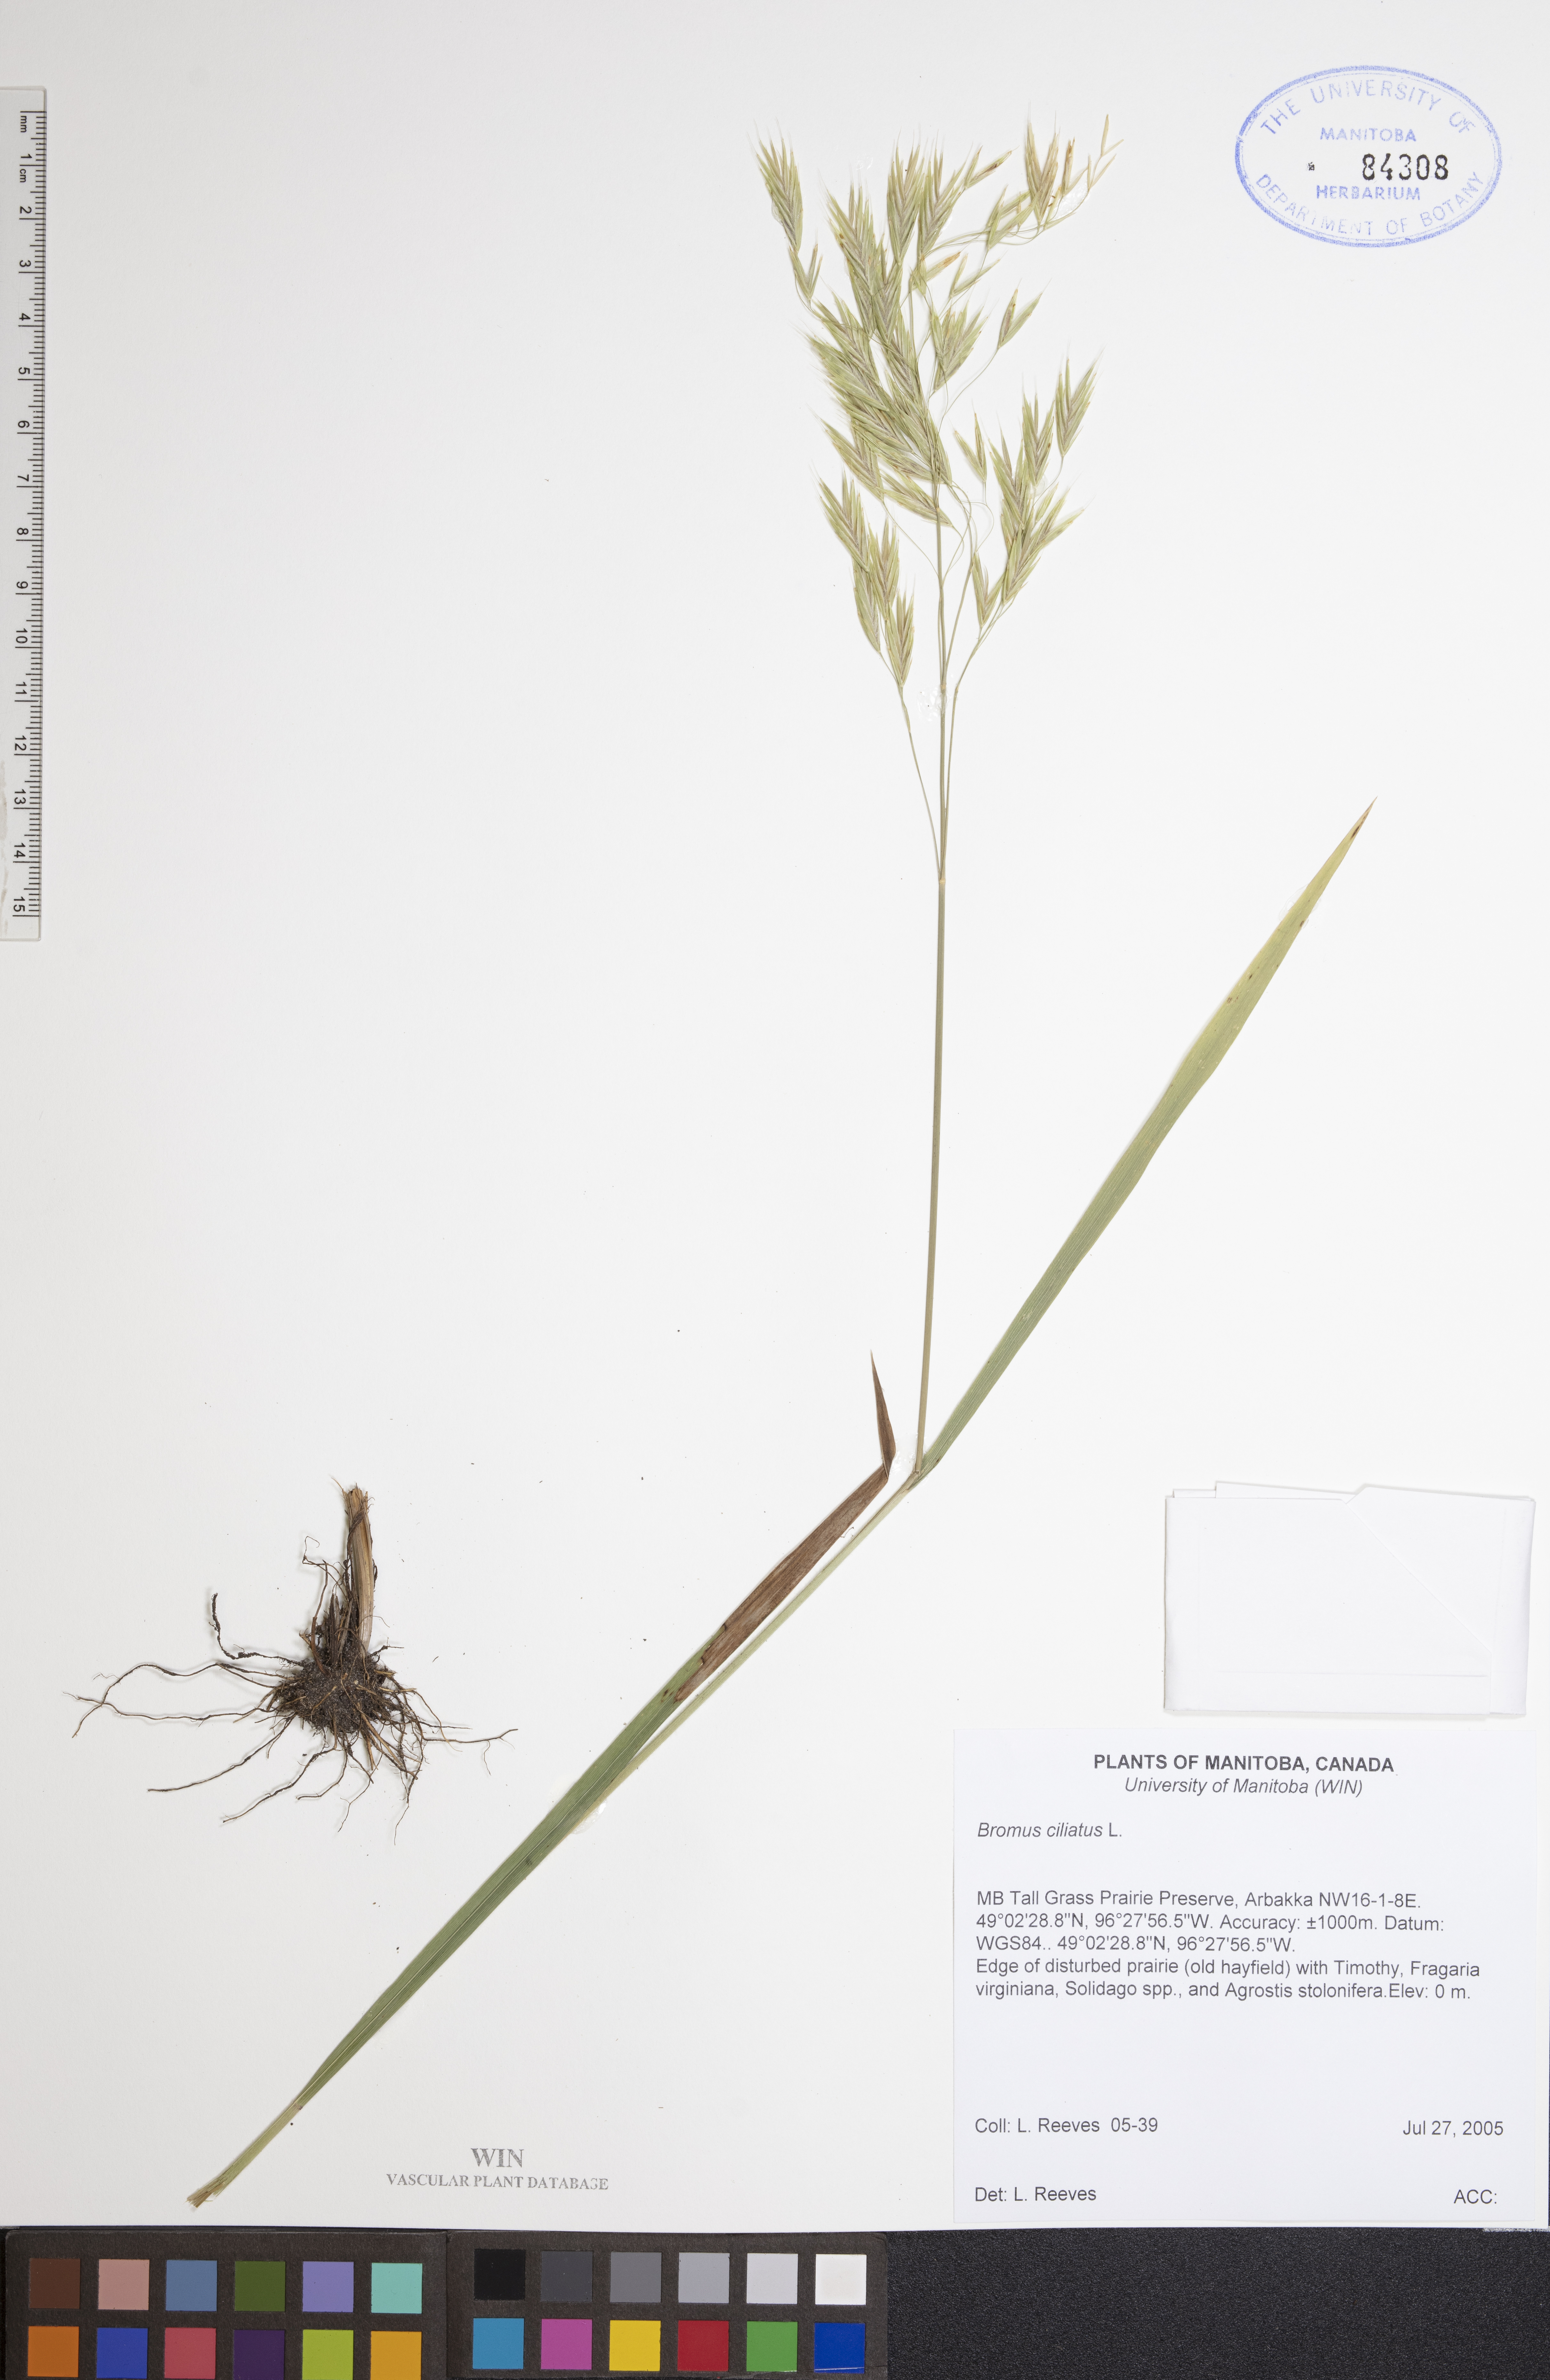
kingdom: Plantae
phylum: Tracheophyta
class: Liliopsida
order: Poales
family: Poaceae
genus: Bromus
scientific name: Bromus ciliatus
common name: Fringe brome
